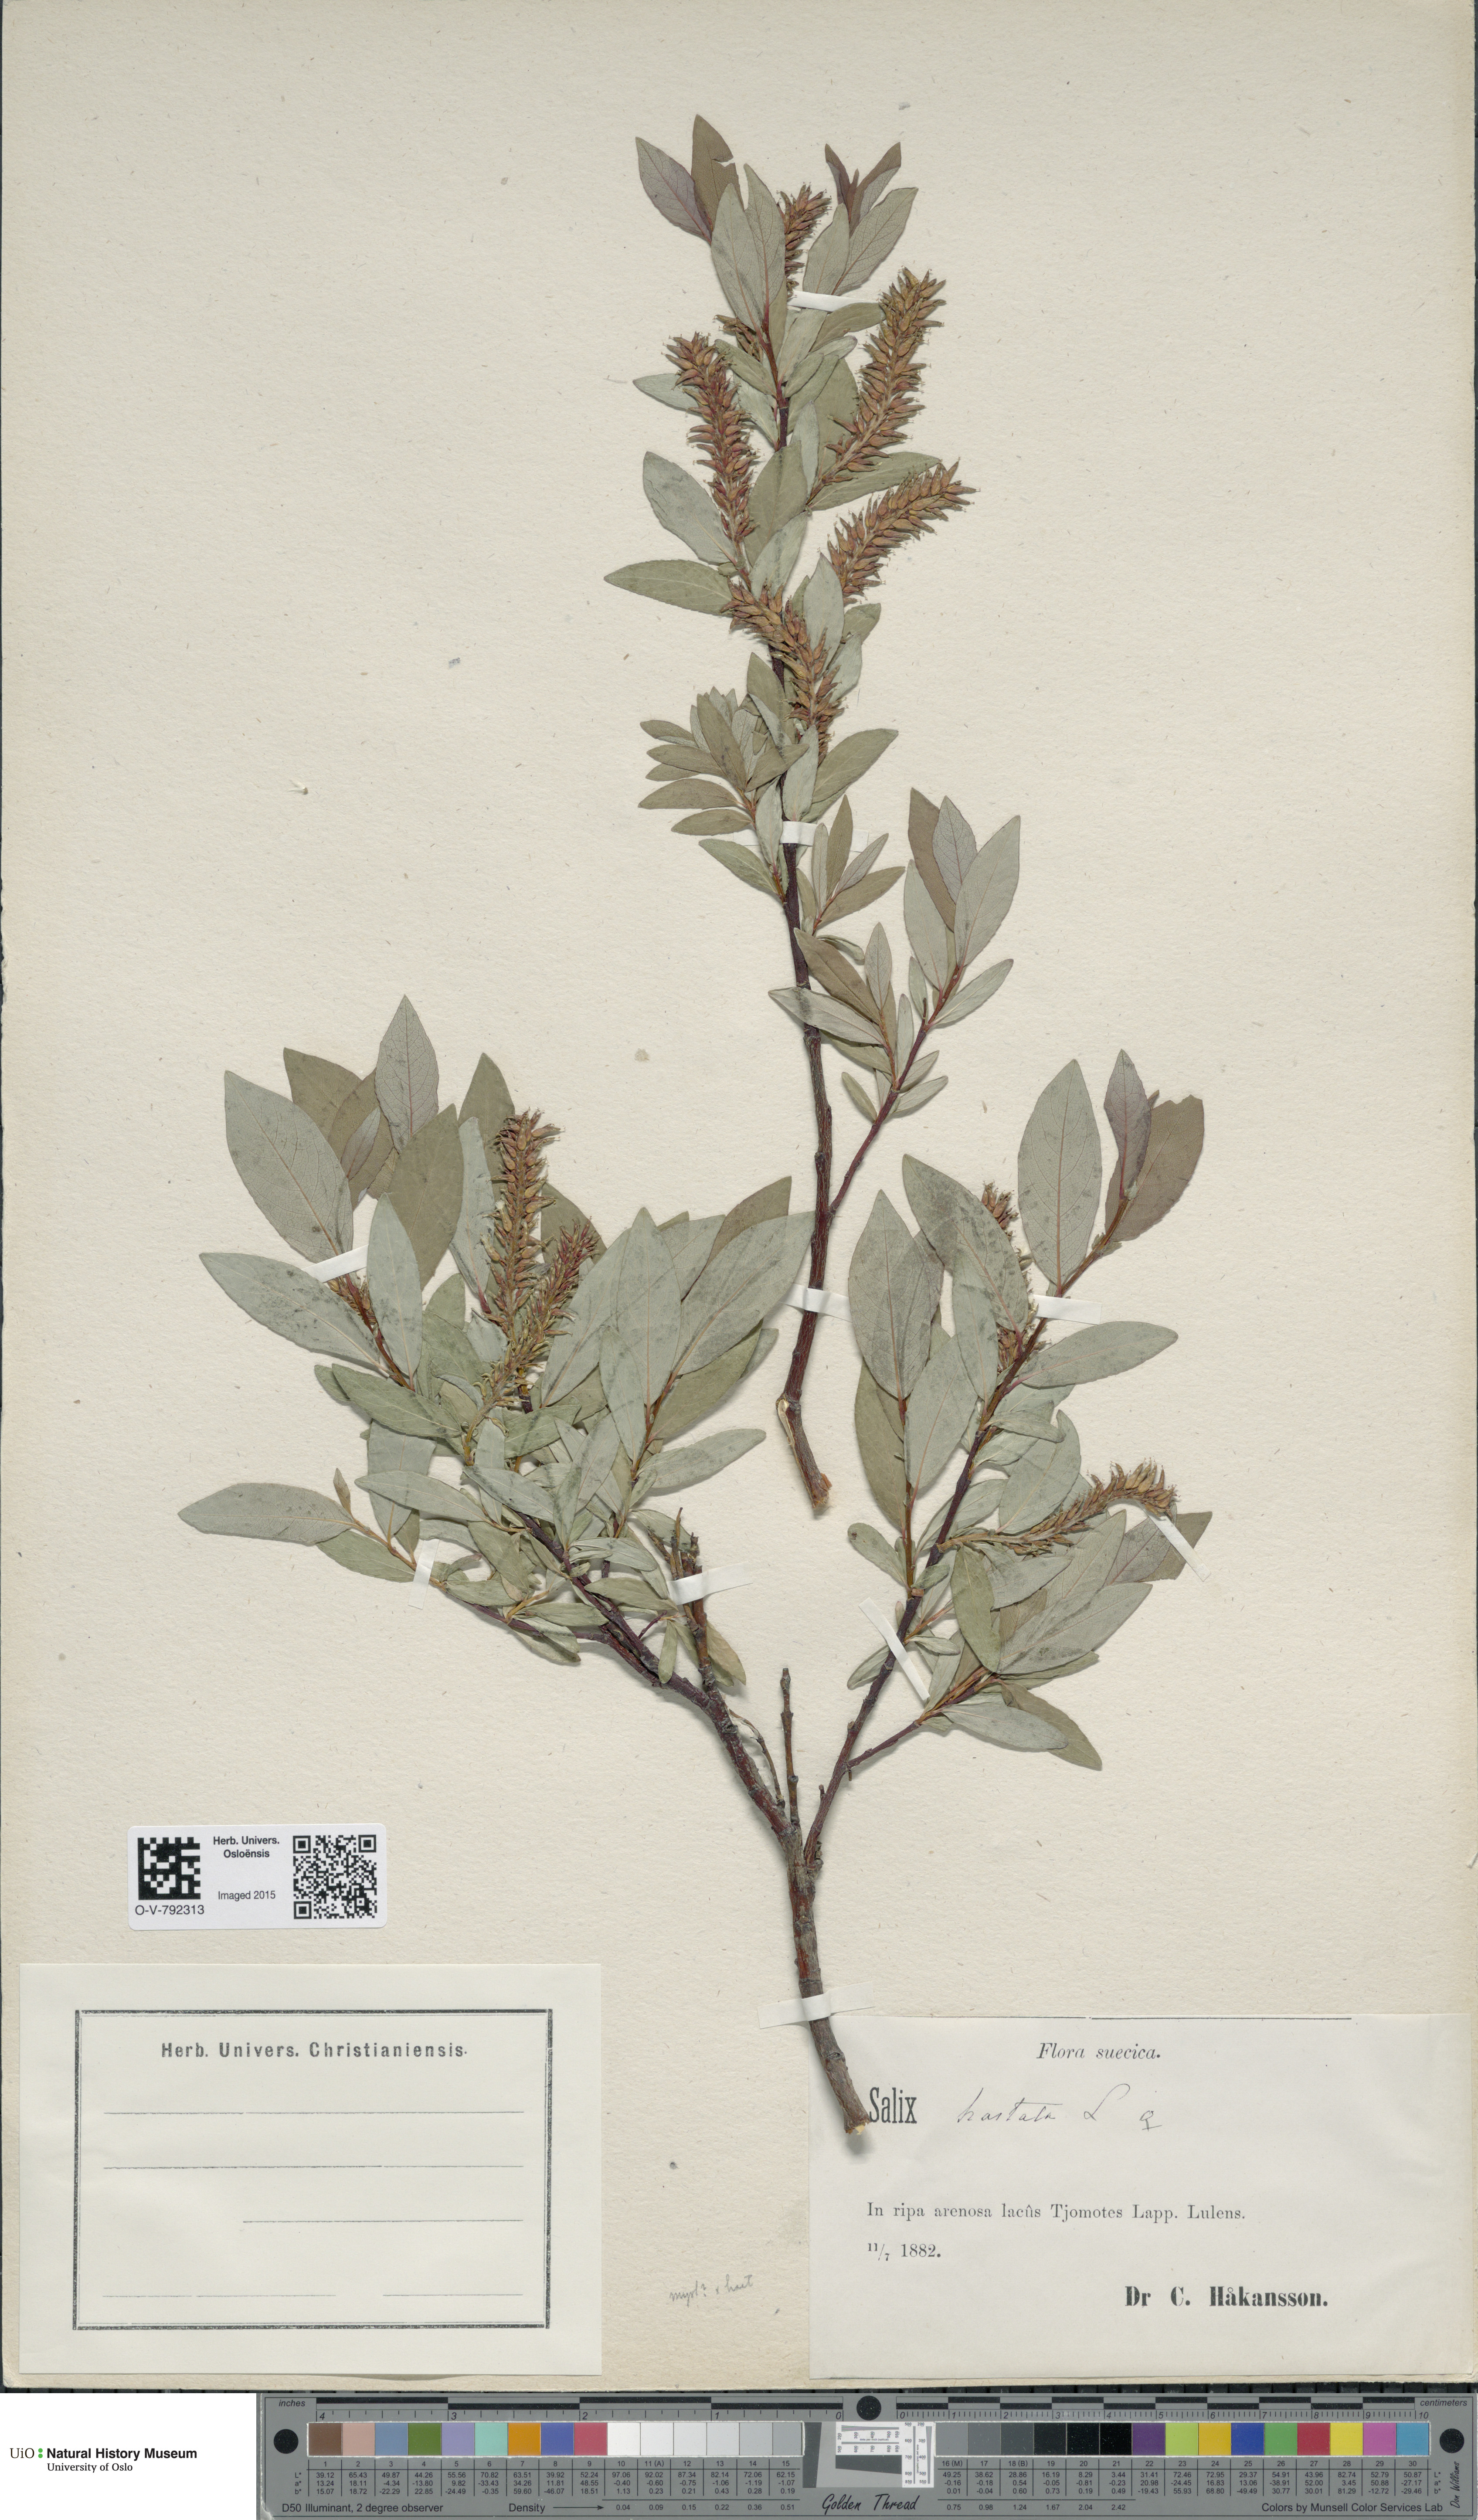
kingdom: Plantae
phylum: Tracheophyta
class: Magnoliopsida
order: Malpighiales
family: Salicaceae
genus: Salix
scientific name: Salix hastata
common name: Halberd willow
